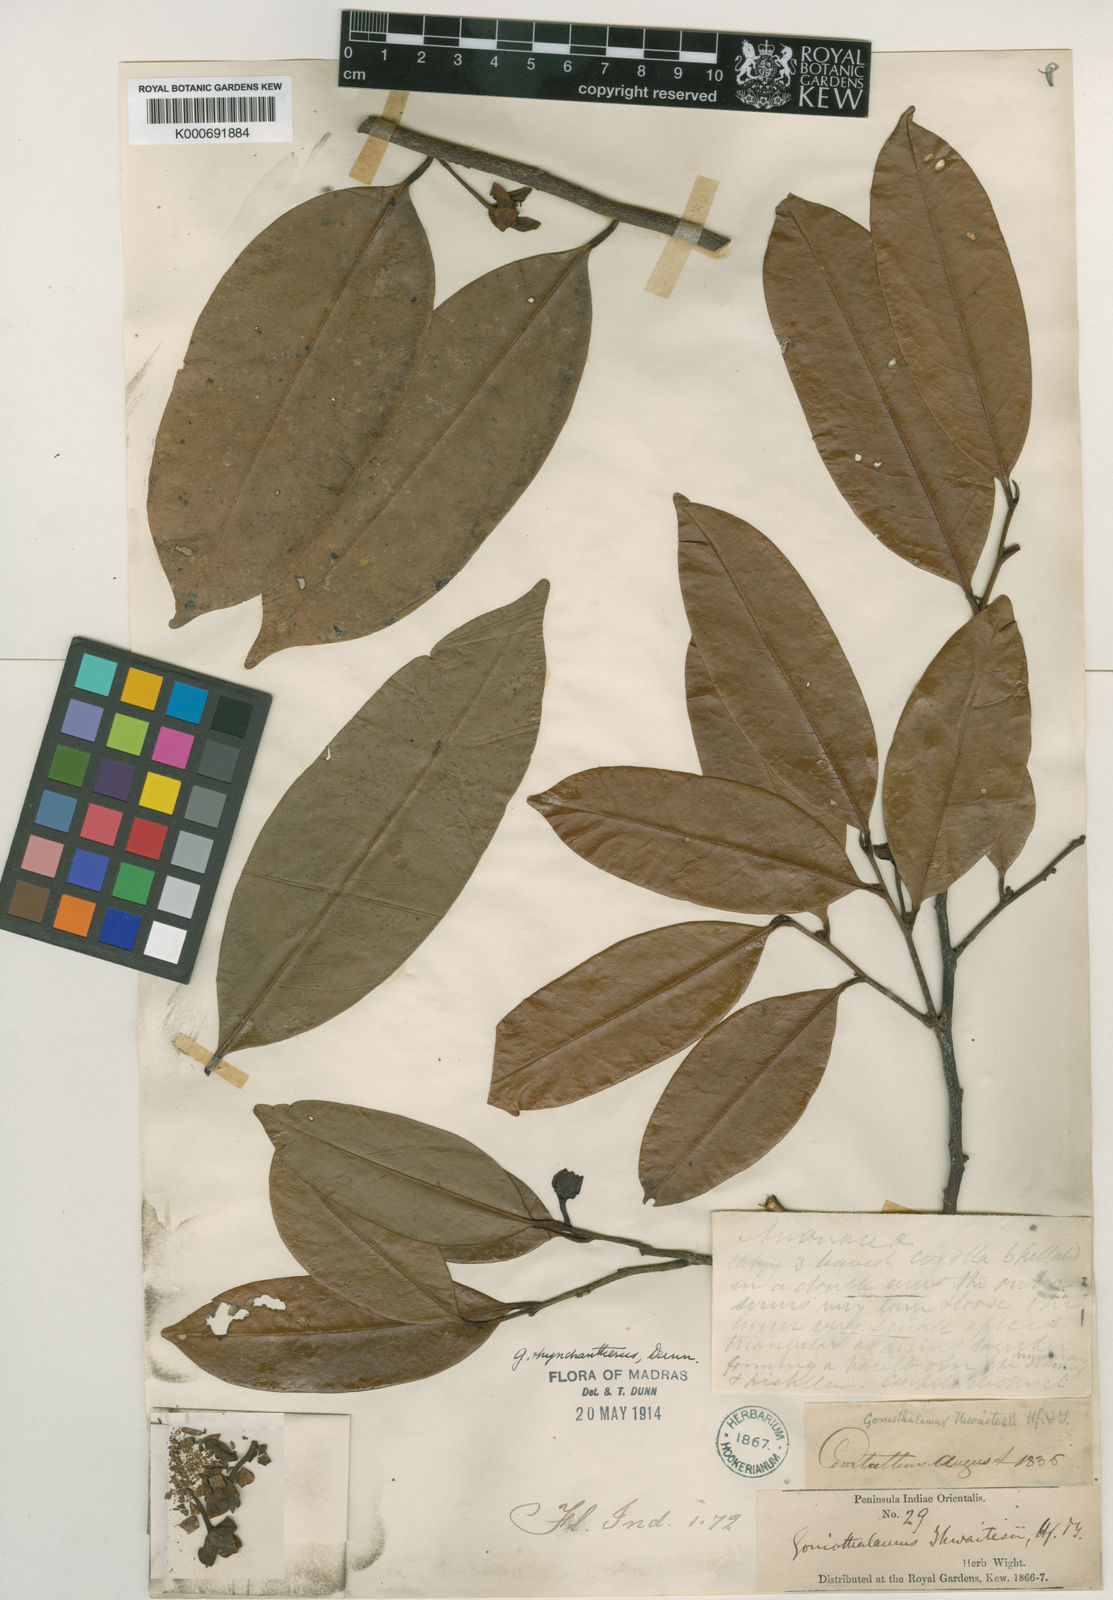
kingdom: Plantae
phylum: Tracheophyta
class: Magnoliopsida
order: Magnoliales
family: Annonaceae
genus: Goniothalamus
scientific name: Goniothalamus rhynchantherus
